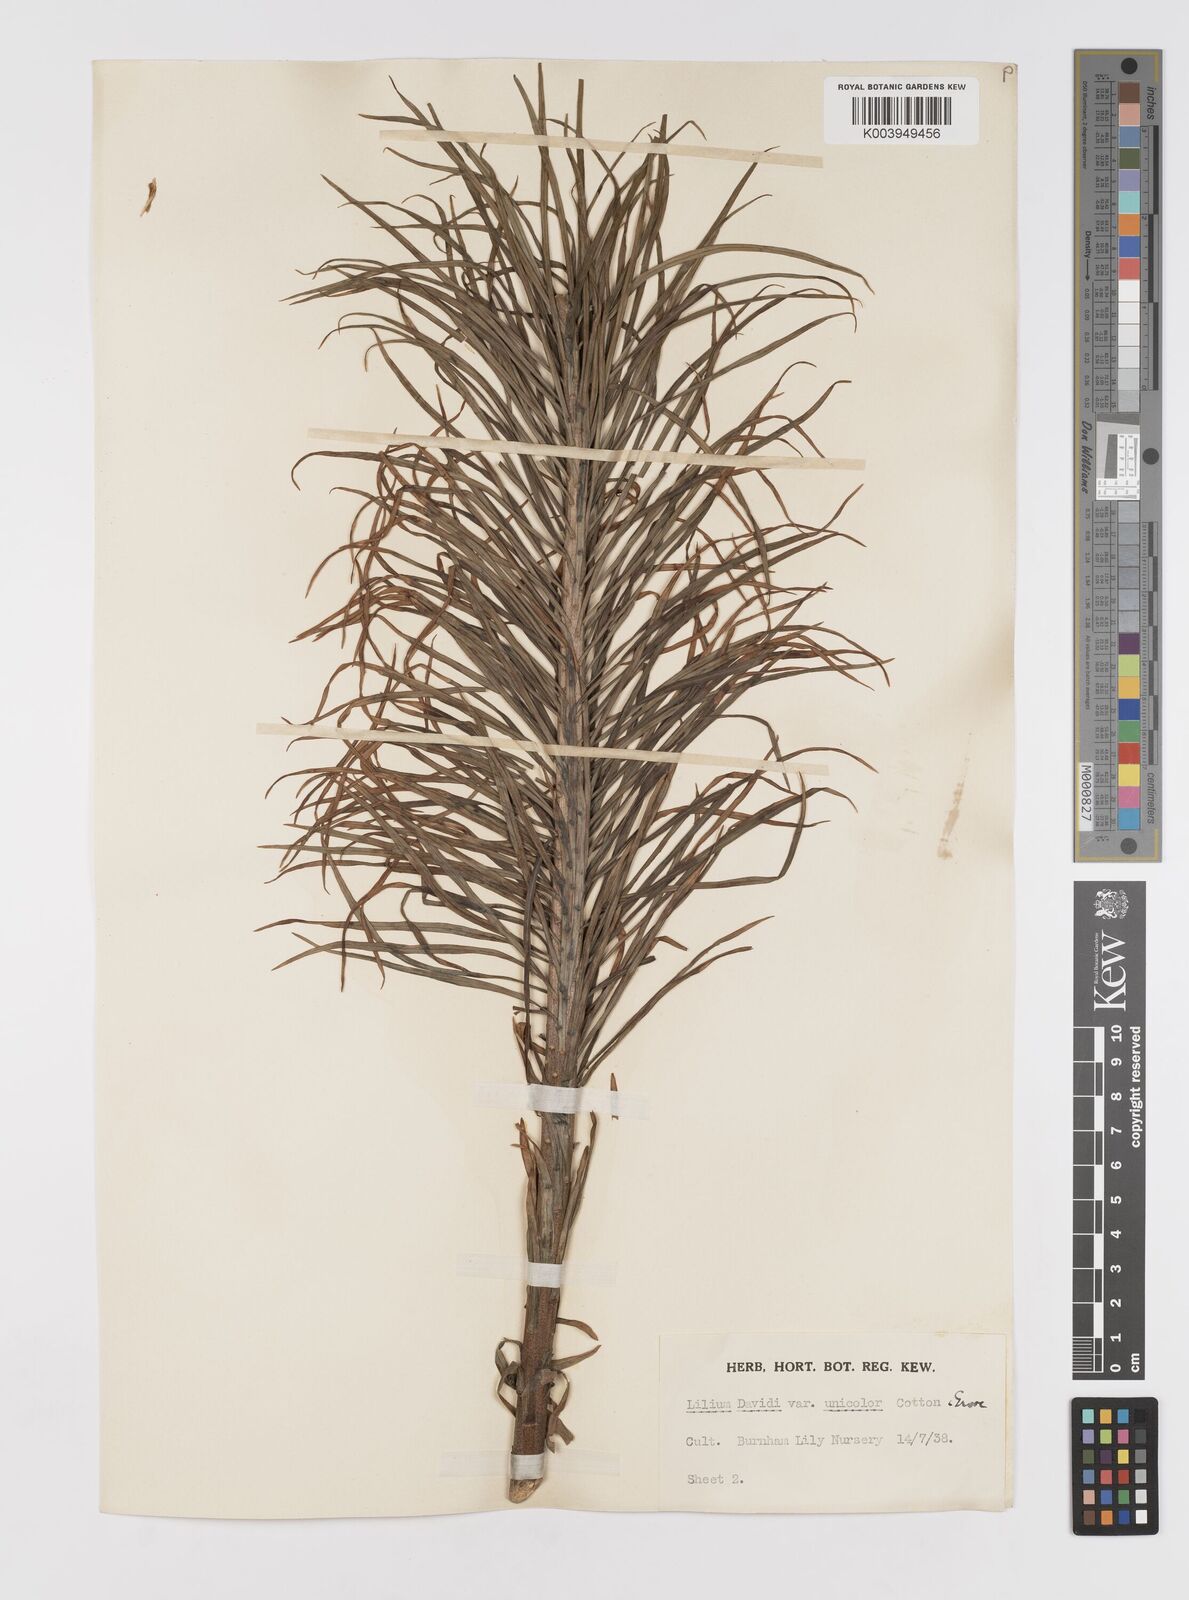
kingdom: Plantae
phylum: Tracheophyta
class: Liliopsida
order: Liliales
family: Liliaceae
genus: Lilium
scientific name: Lilium davidii
